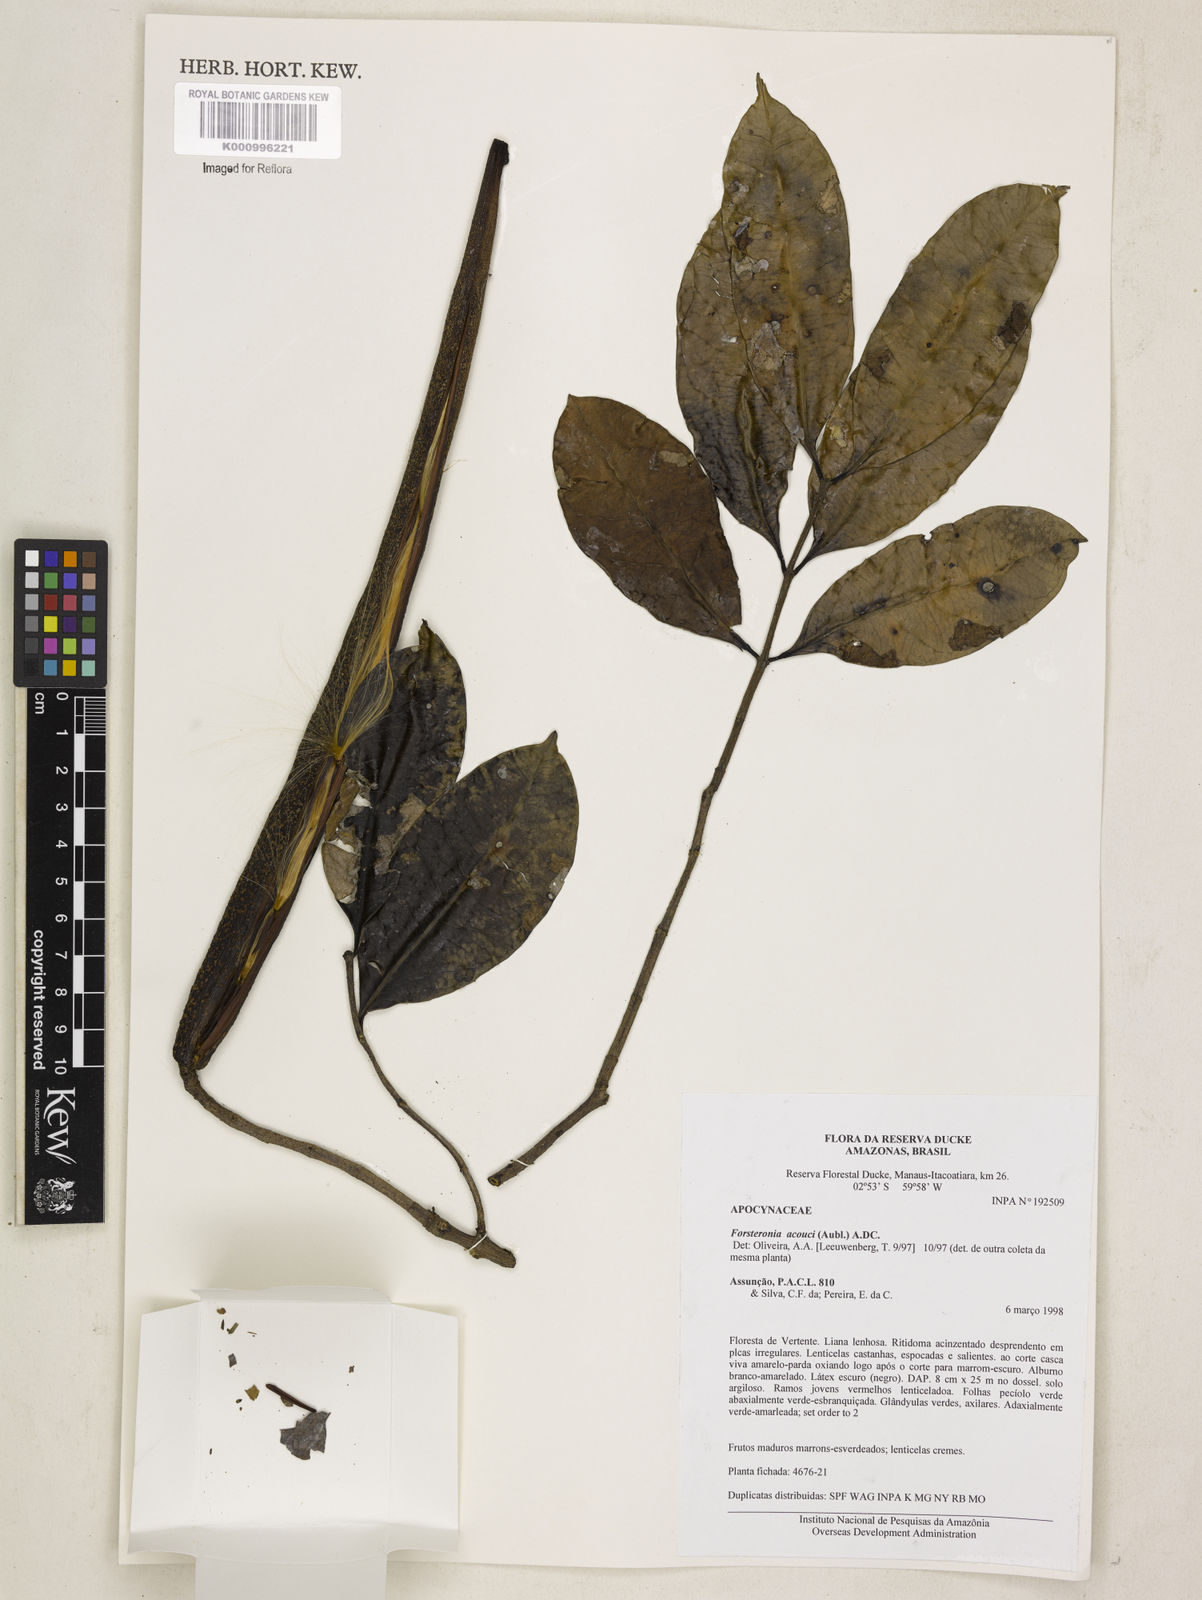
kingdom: Plantae
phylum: Tracheophyta
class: Magnoliopsida
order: Gentianales
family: Apocynaceae
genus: Forsteronia
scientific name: Forsteronia acouci
